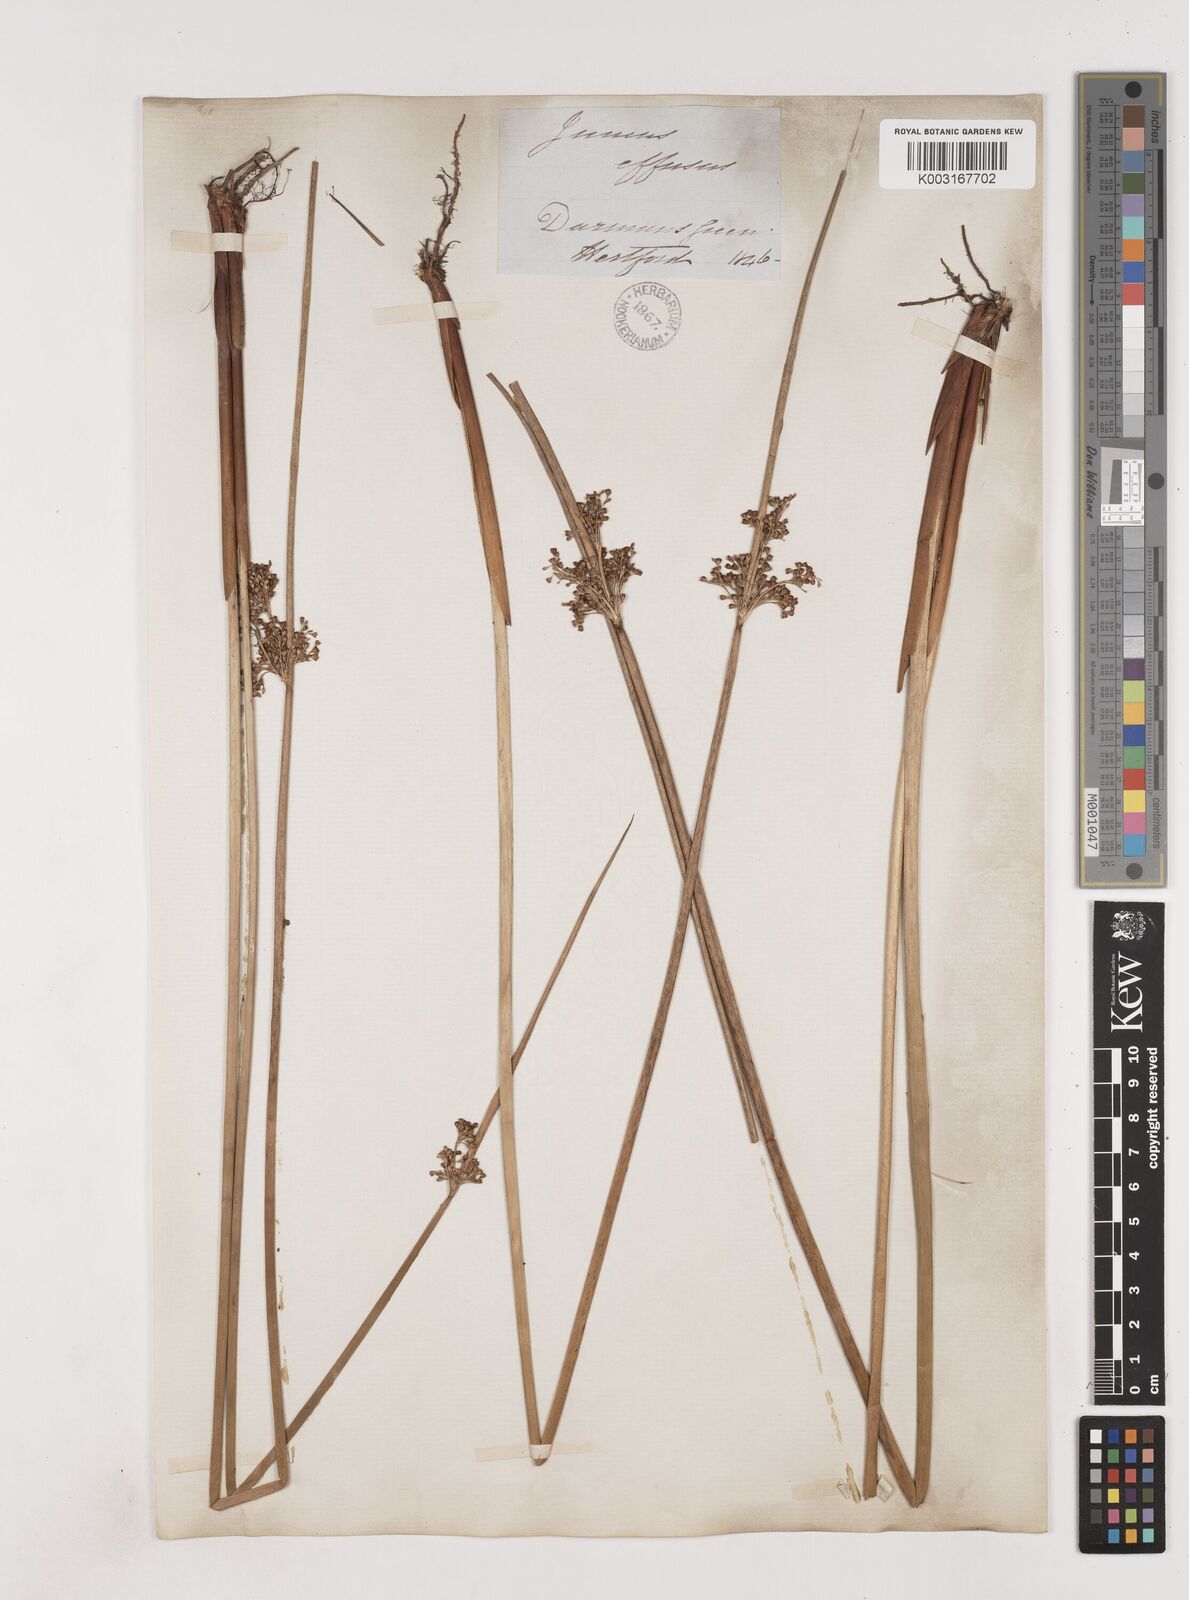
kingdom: Plantae
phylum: Tracheophyta
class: Liliopsida
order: Poales
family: Juncaceae
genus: Juncus
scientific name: Juncus effusus
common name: Soft rush
